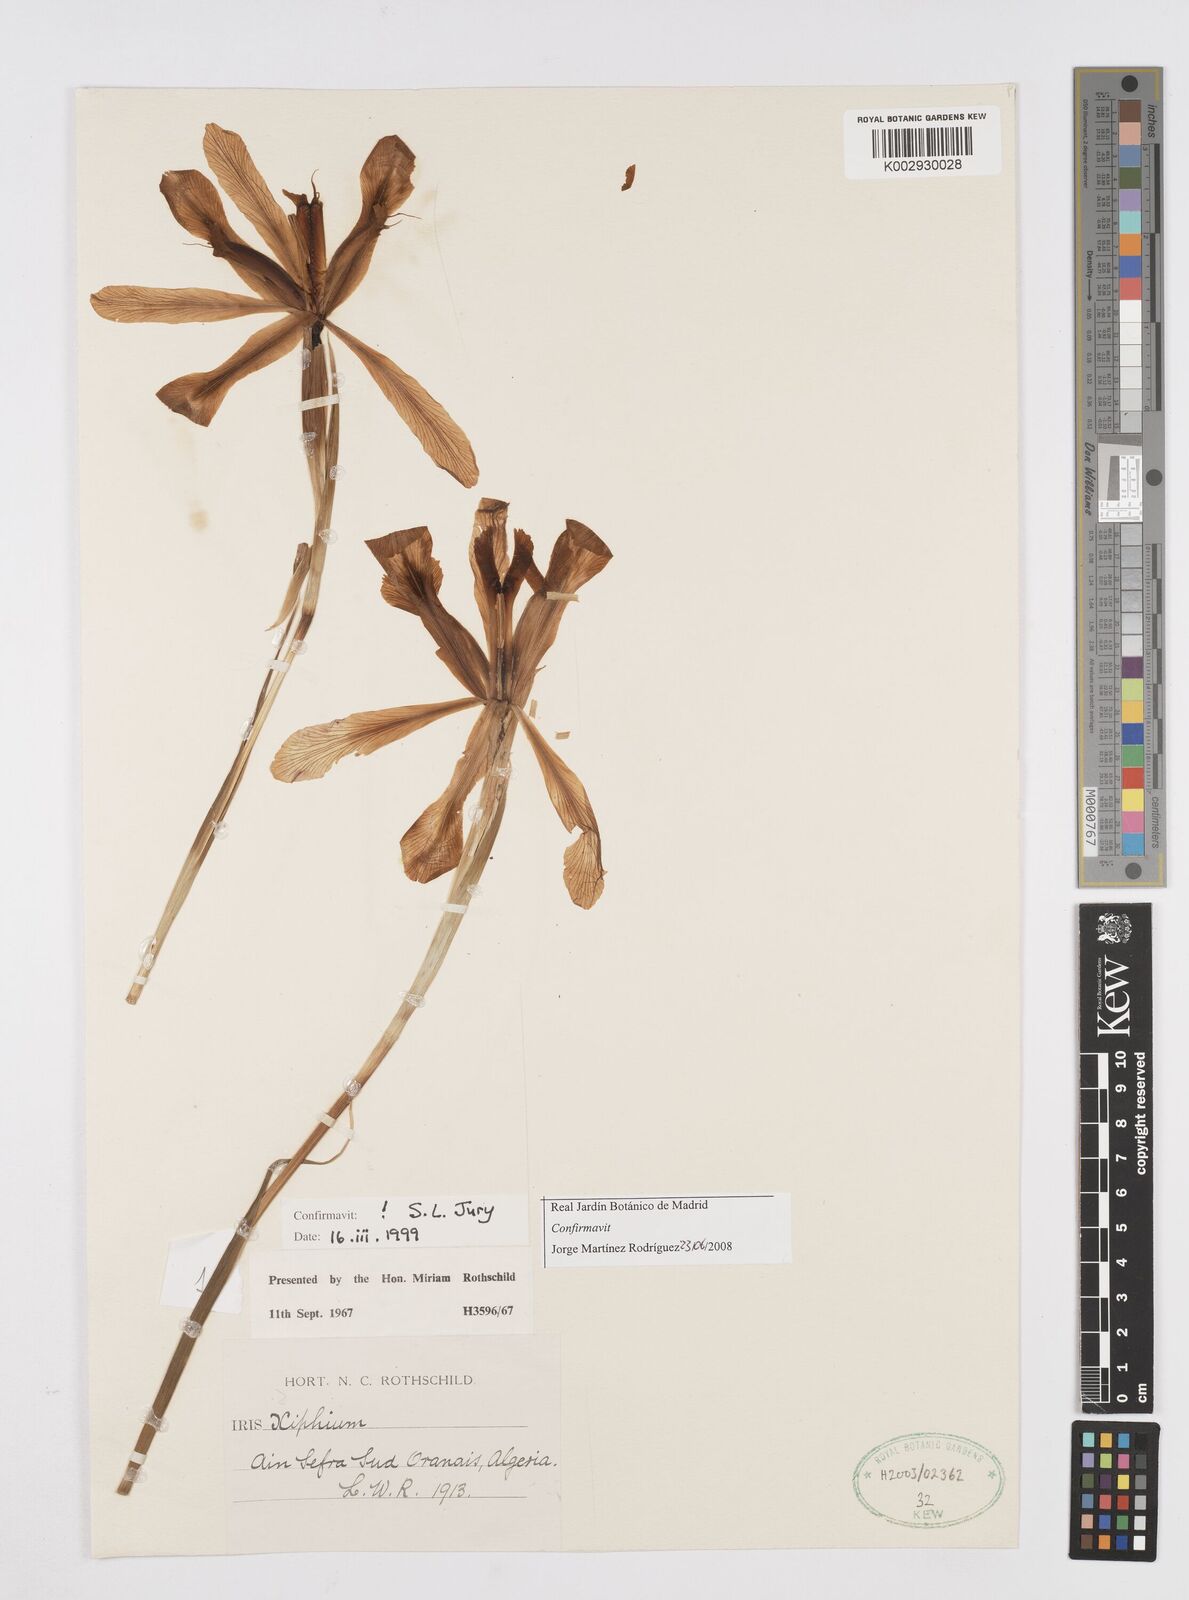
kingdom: Plantae
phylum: Tracheophyta
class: Liliopsida
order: Asparagales
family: Iridaceae
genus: Iris
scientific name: Iris
